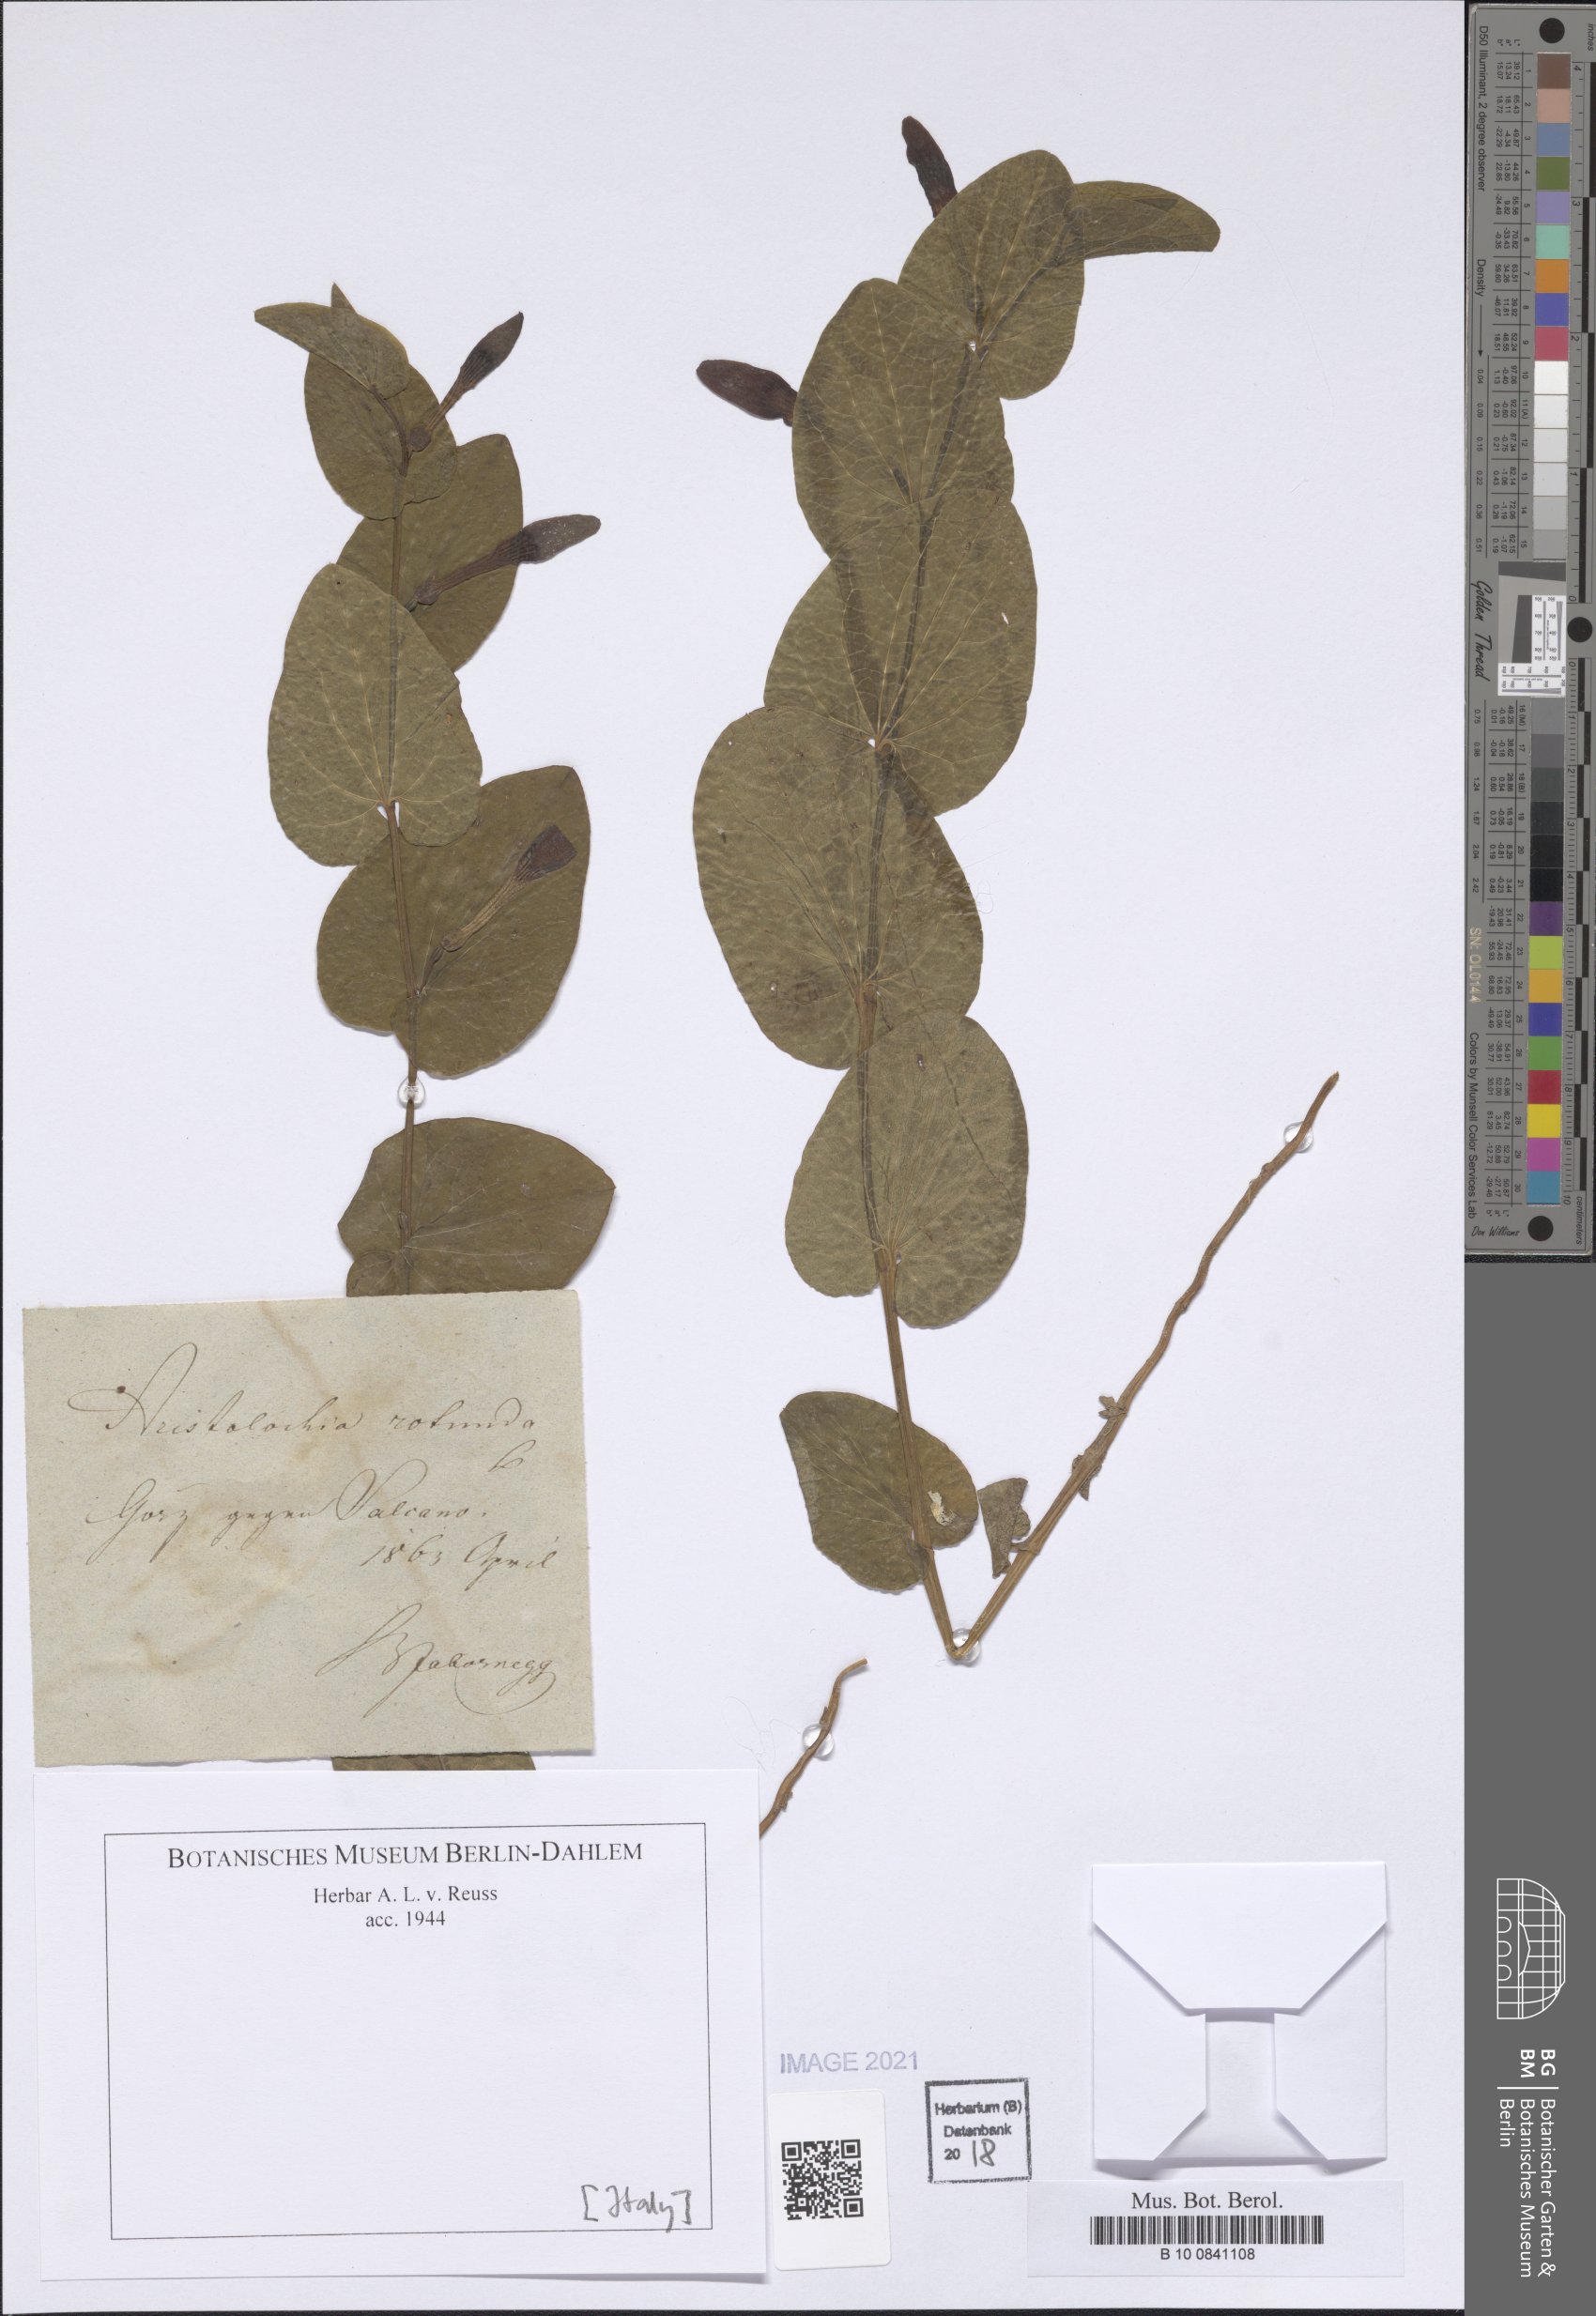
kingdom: Plantae
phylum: Tracheophyta
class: Magnoliopsida
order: Piperales
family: Aristolochiaceae
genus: Aristolochia
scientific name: Aristolochia rotunda
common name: Smearwort
